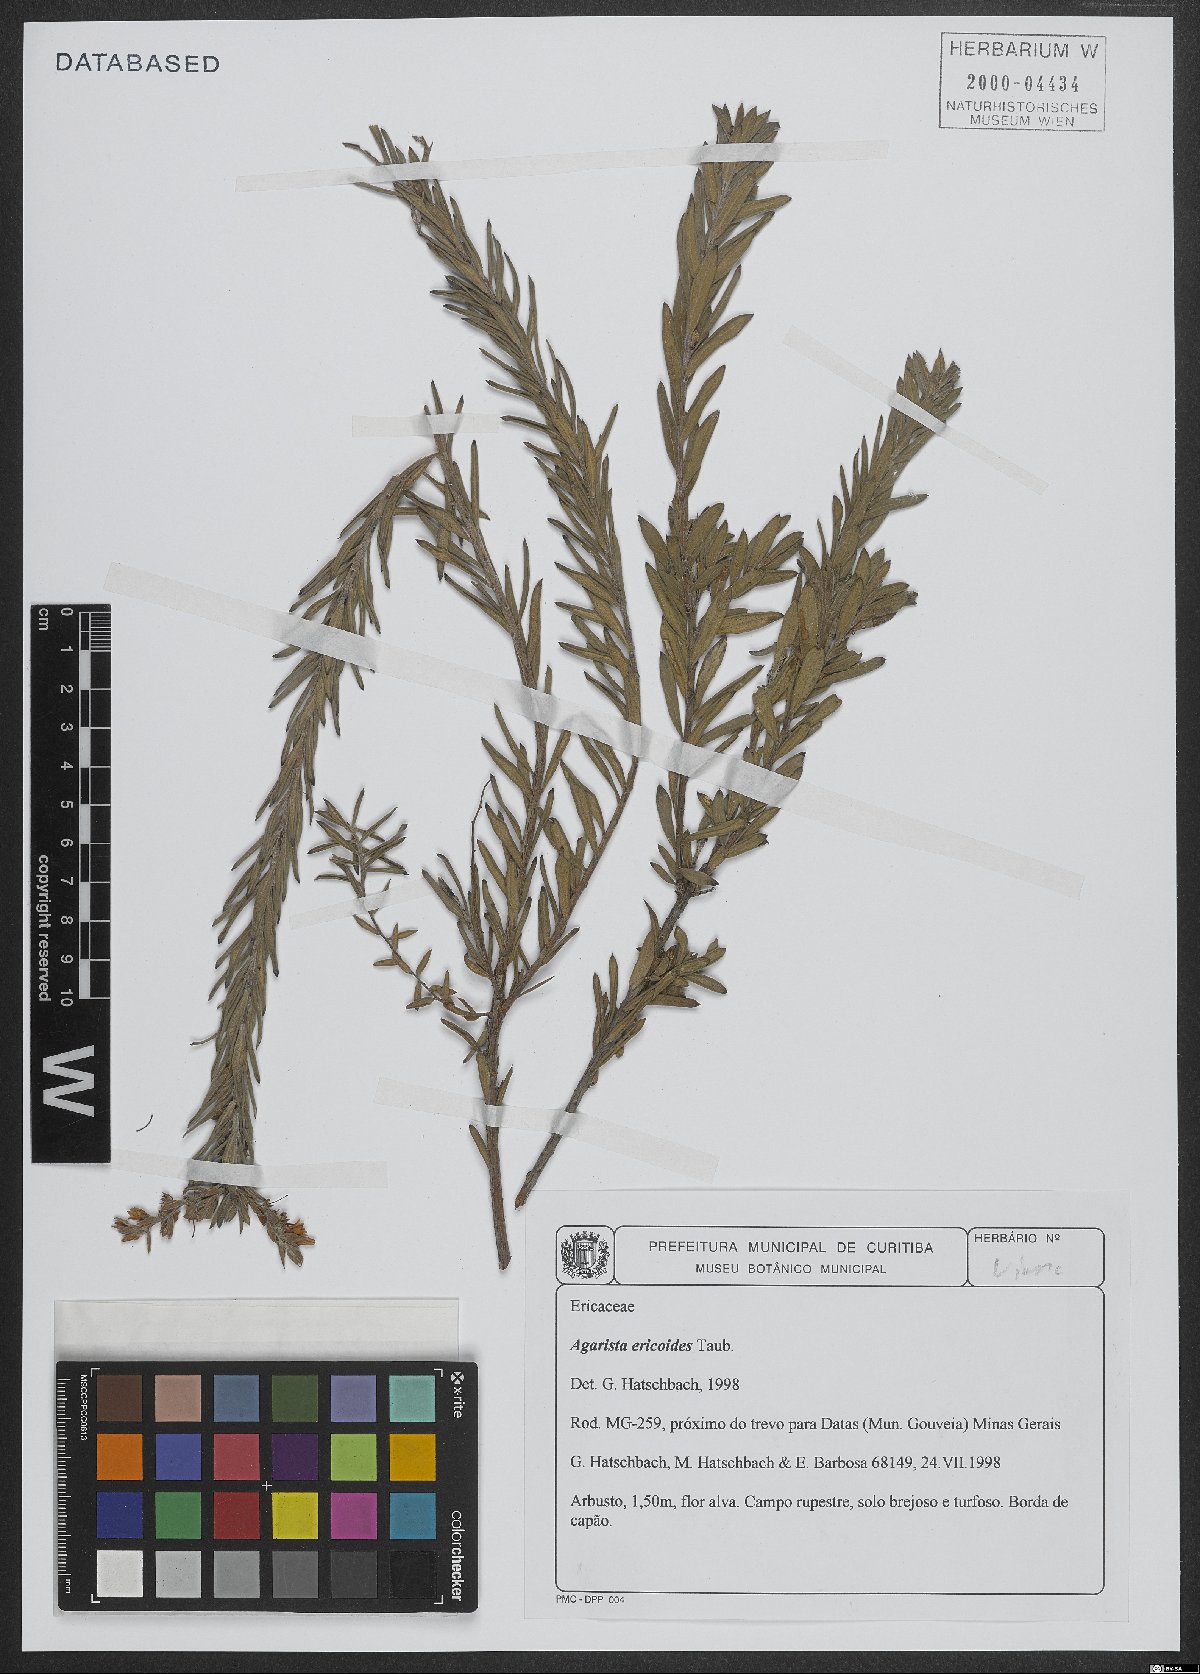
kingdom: Plantae
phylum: Tracheophyta
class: Magnoliopsida
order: Ericales
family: Ericaceae
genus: Agarista
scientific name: Agarista ericoides
